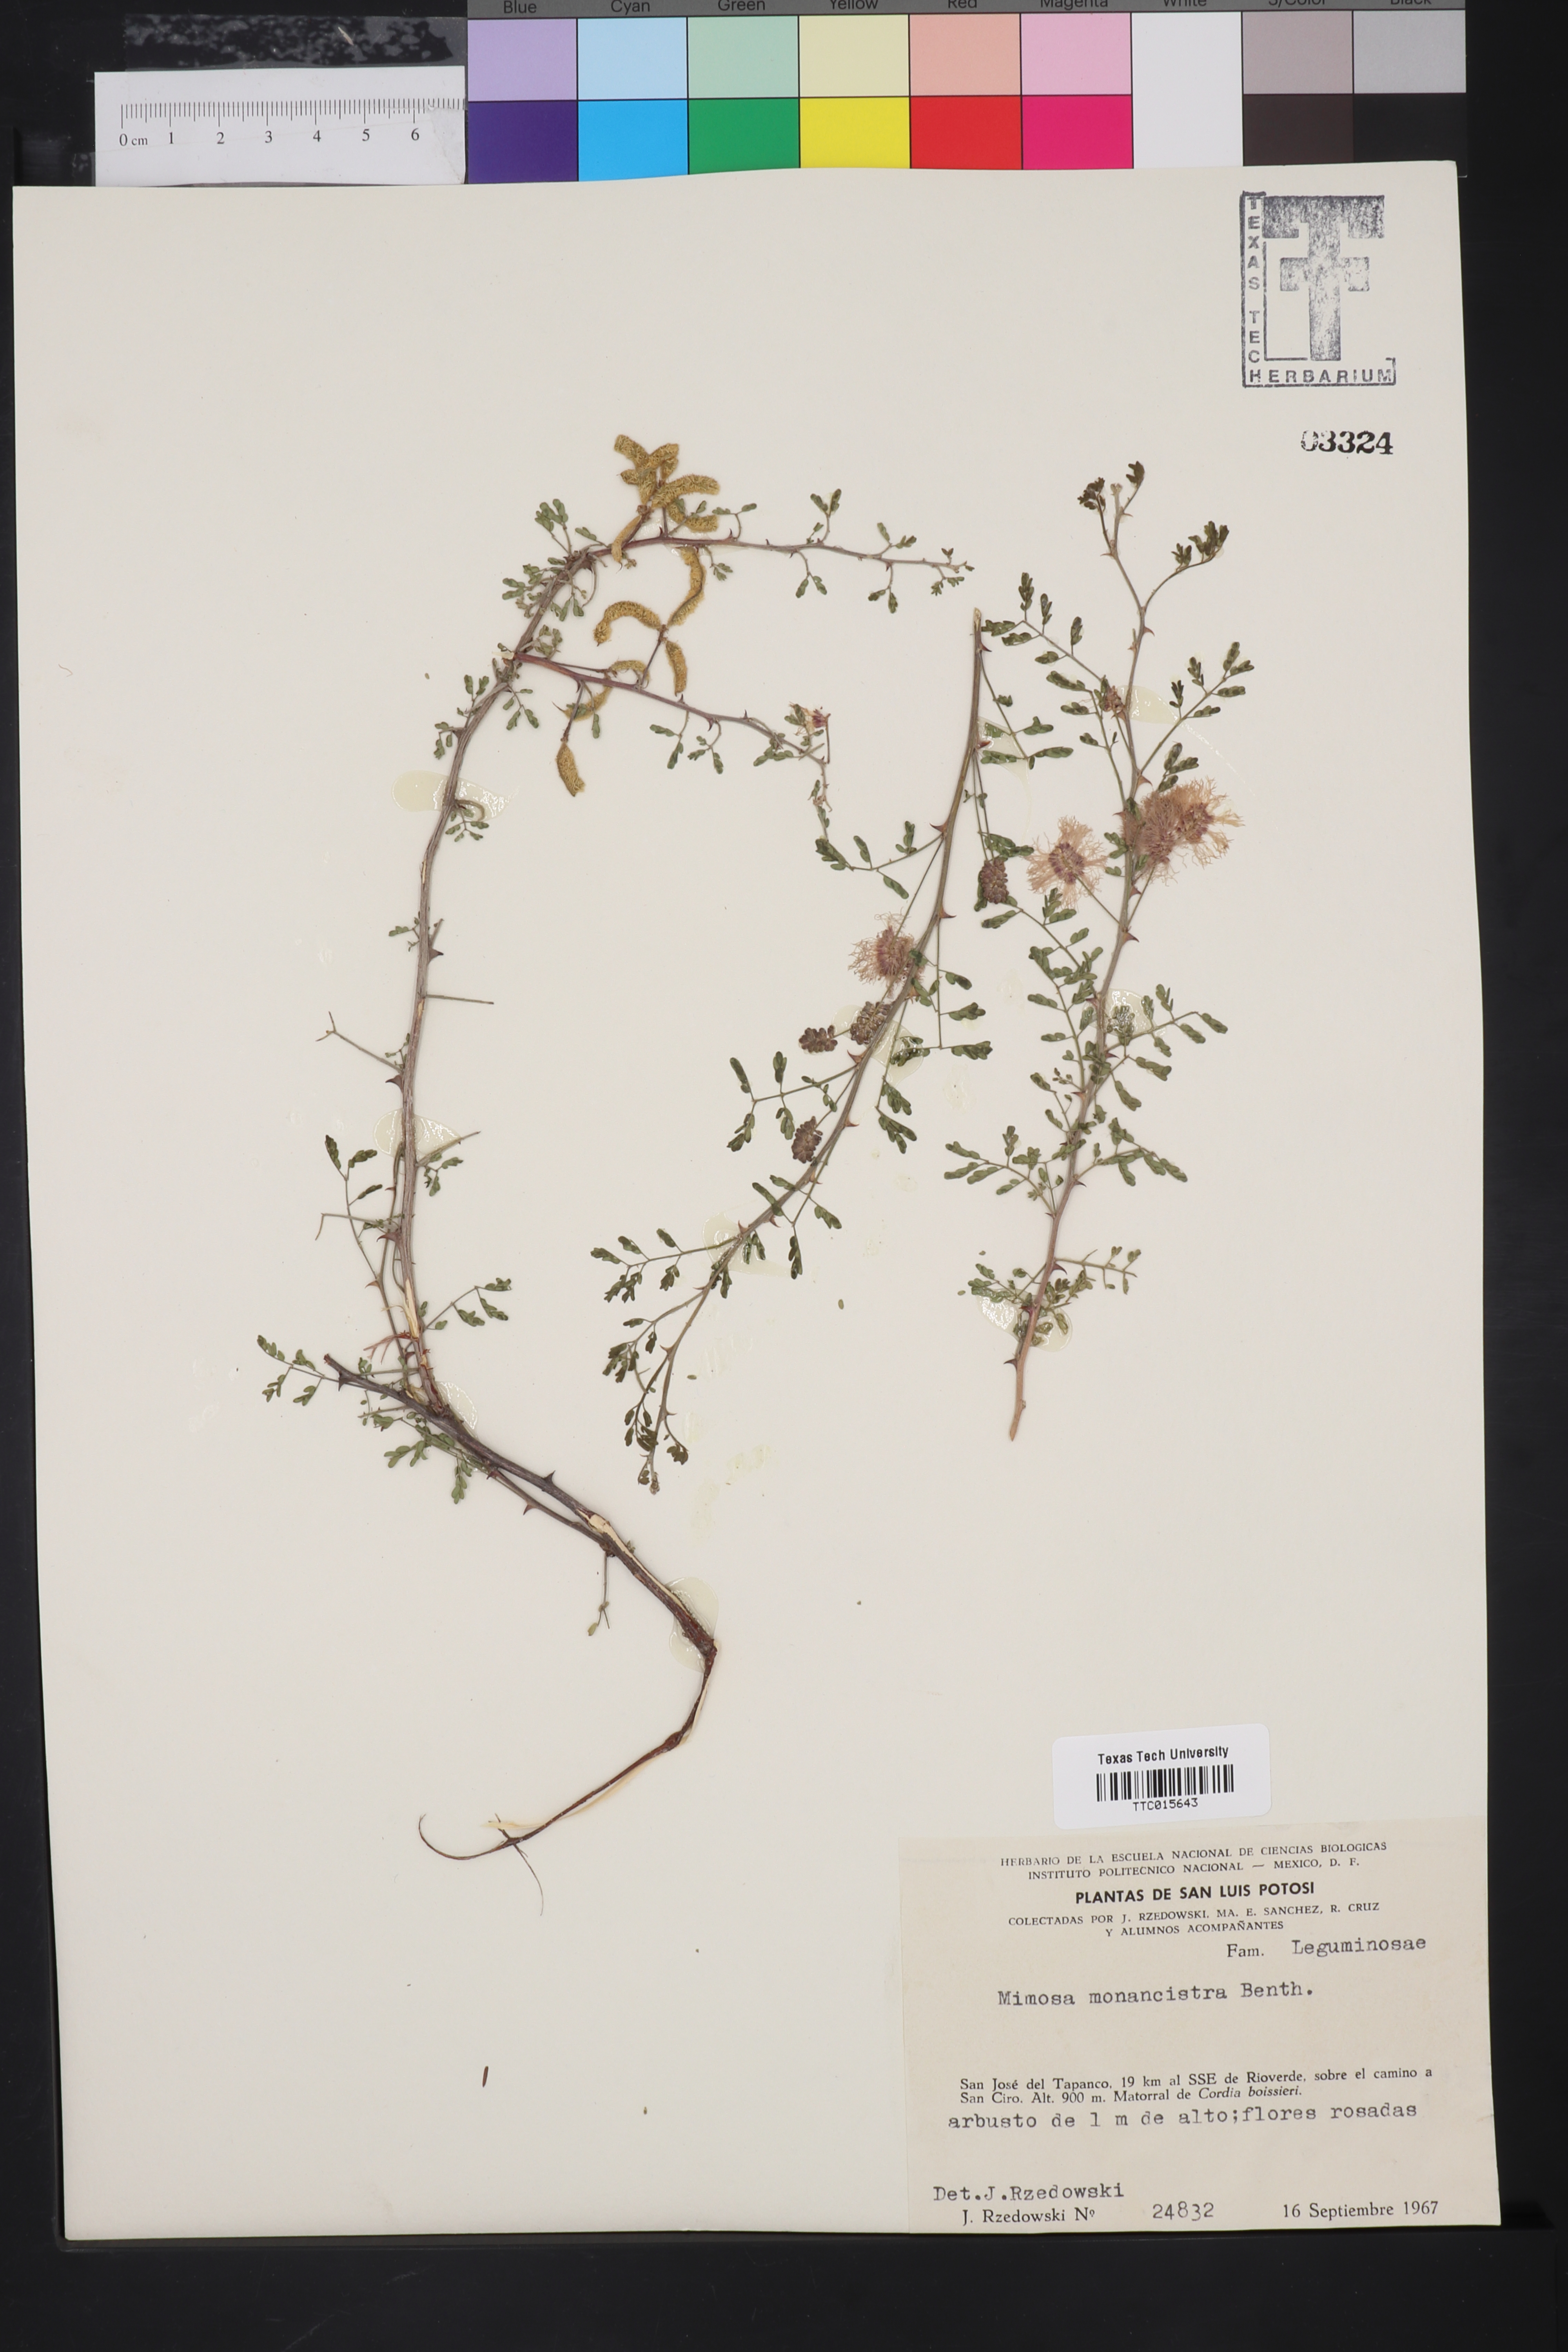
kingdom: Plantae
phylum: Tracheophyta
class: Magnoliopsida
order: Fabales
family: Fabaceae
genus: Mimosa
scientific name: Mimosa monancistra
